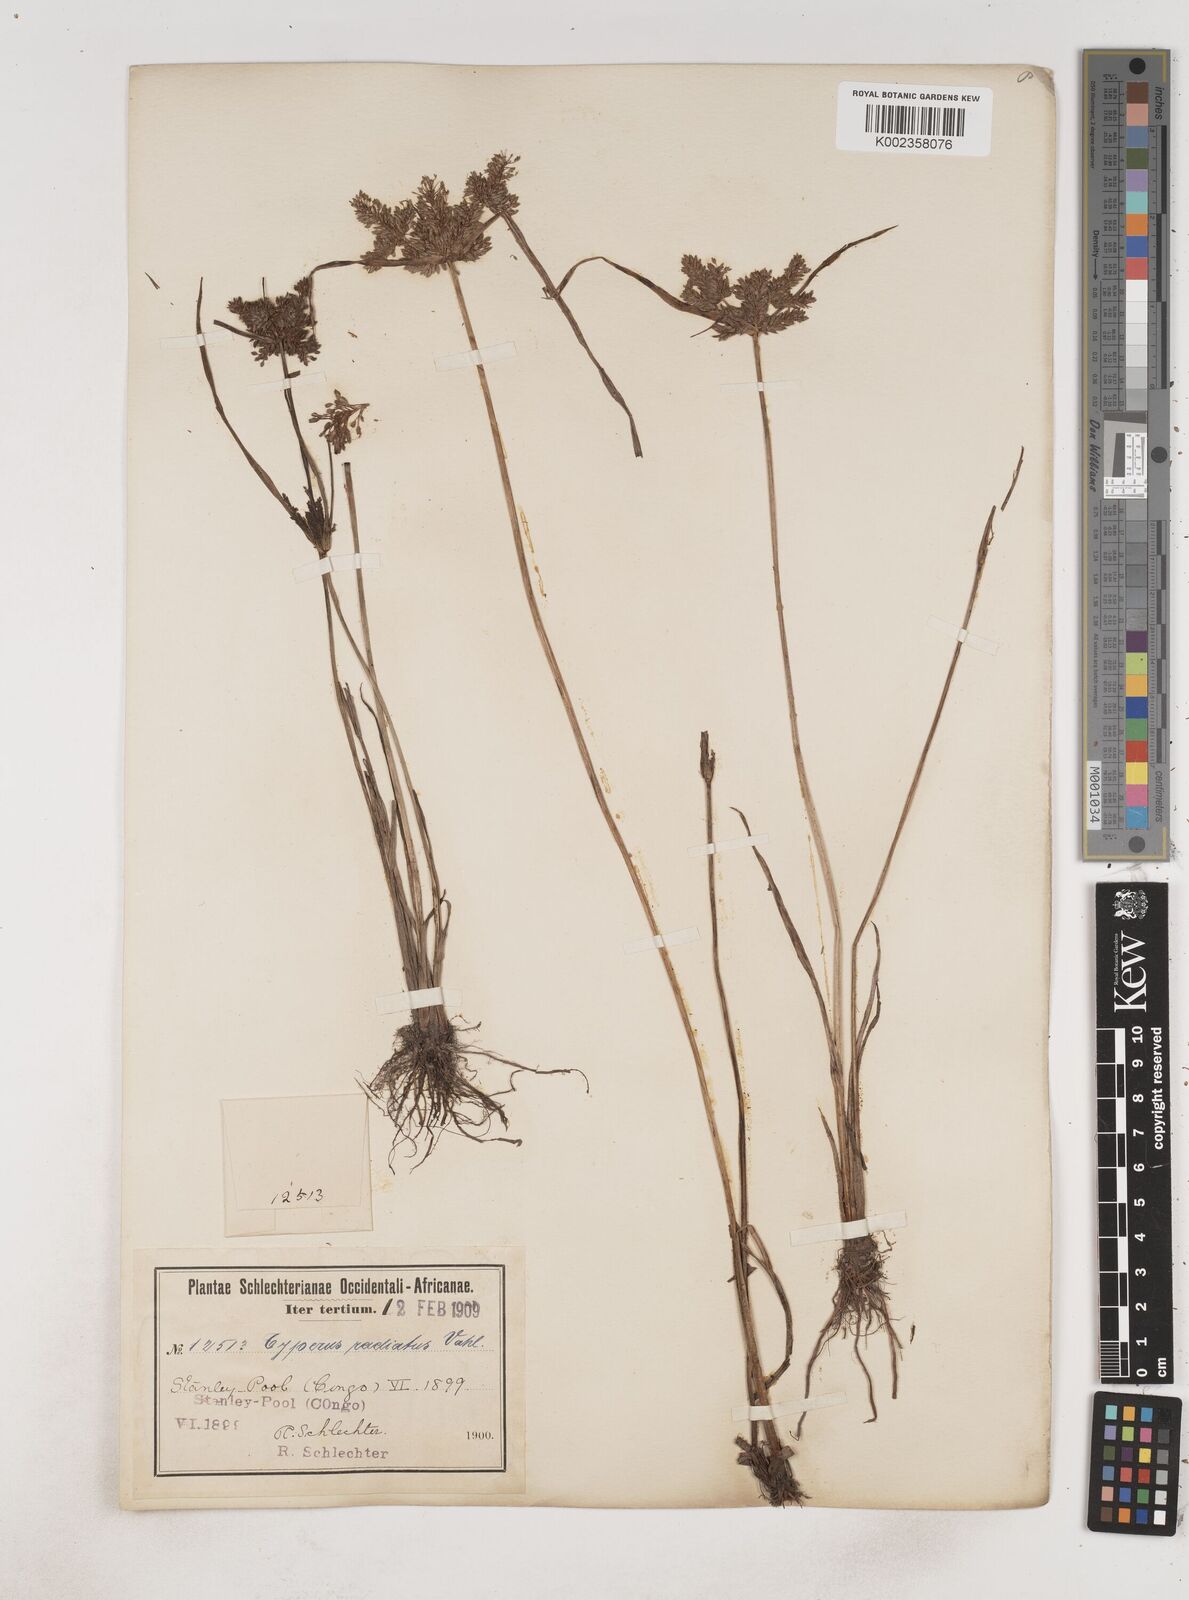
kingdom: Plantae
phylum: Tracheophyta
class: Liliopsida
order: Poales
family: Cyperaceae
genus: Cyperus
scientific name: Cyperus imbricatus
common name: Shingle flatsedge
